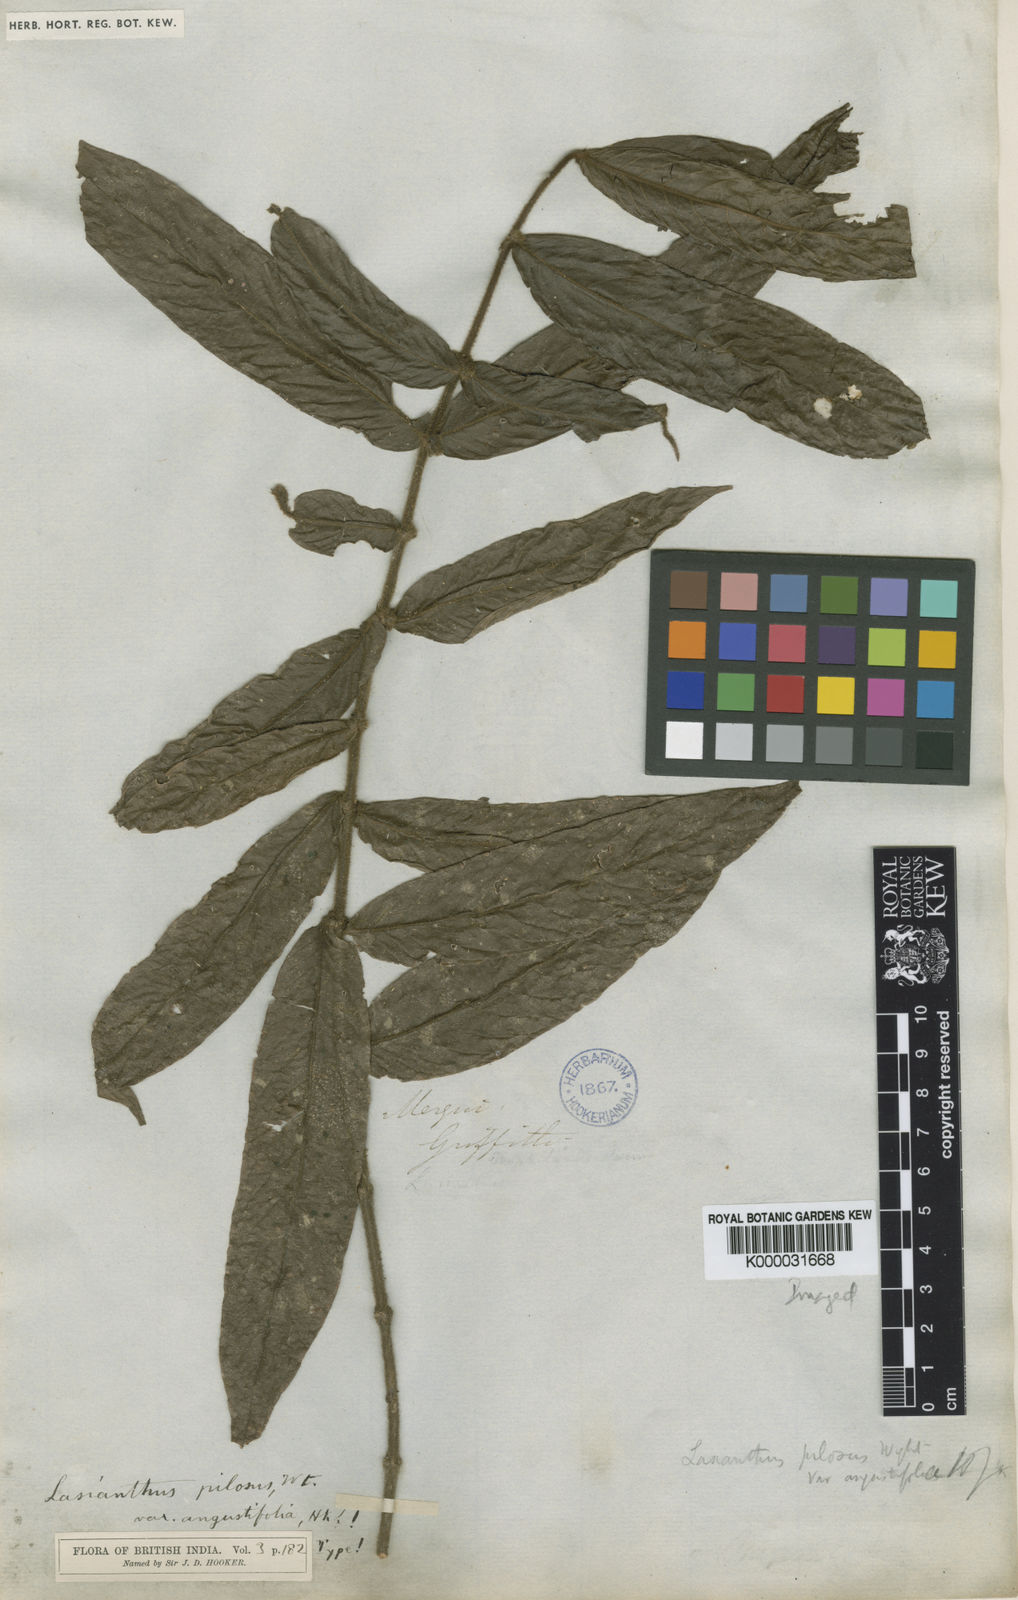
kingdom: Plantae
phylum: Tracheophyta
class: Magnoliopsida
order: Gentianales
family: Rubiaceae
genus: Lasianthus
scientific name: Lasianthus pilosus
